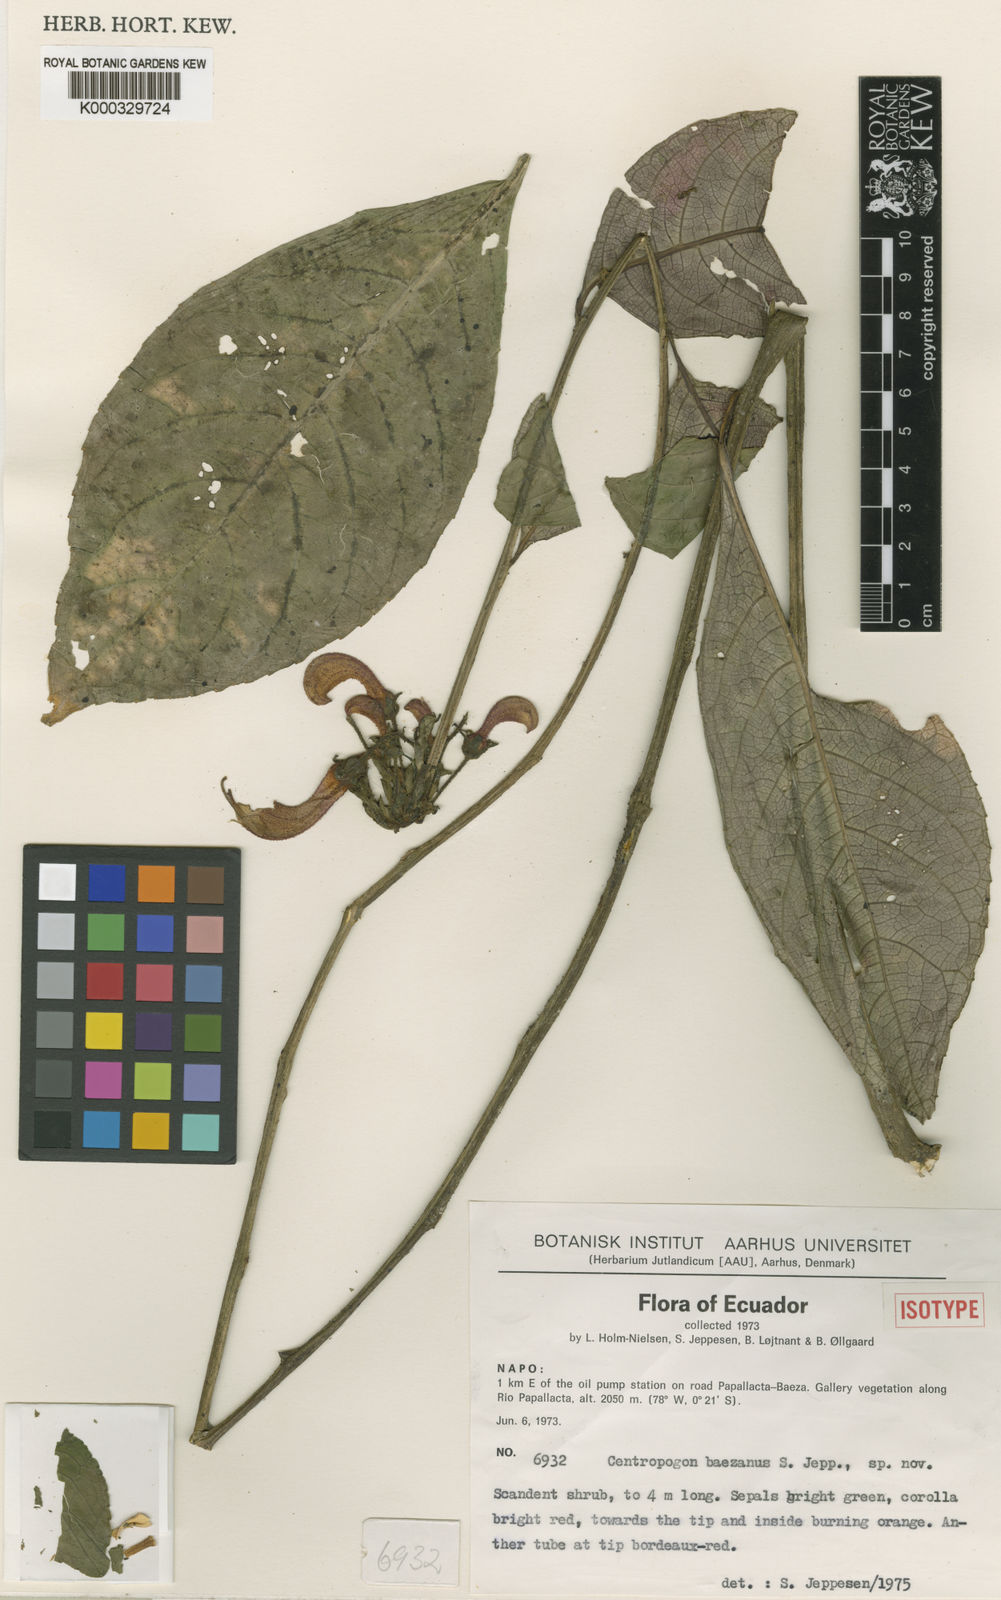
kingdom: Plantae
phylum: Tracheophyta
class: Magnoliopsida
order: Asterales
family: Campanulaceae
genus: Centropogon
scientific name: Centropogon baezanus
